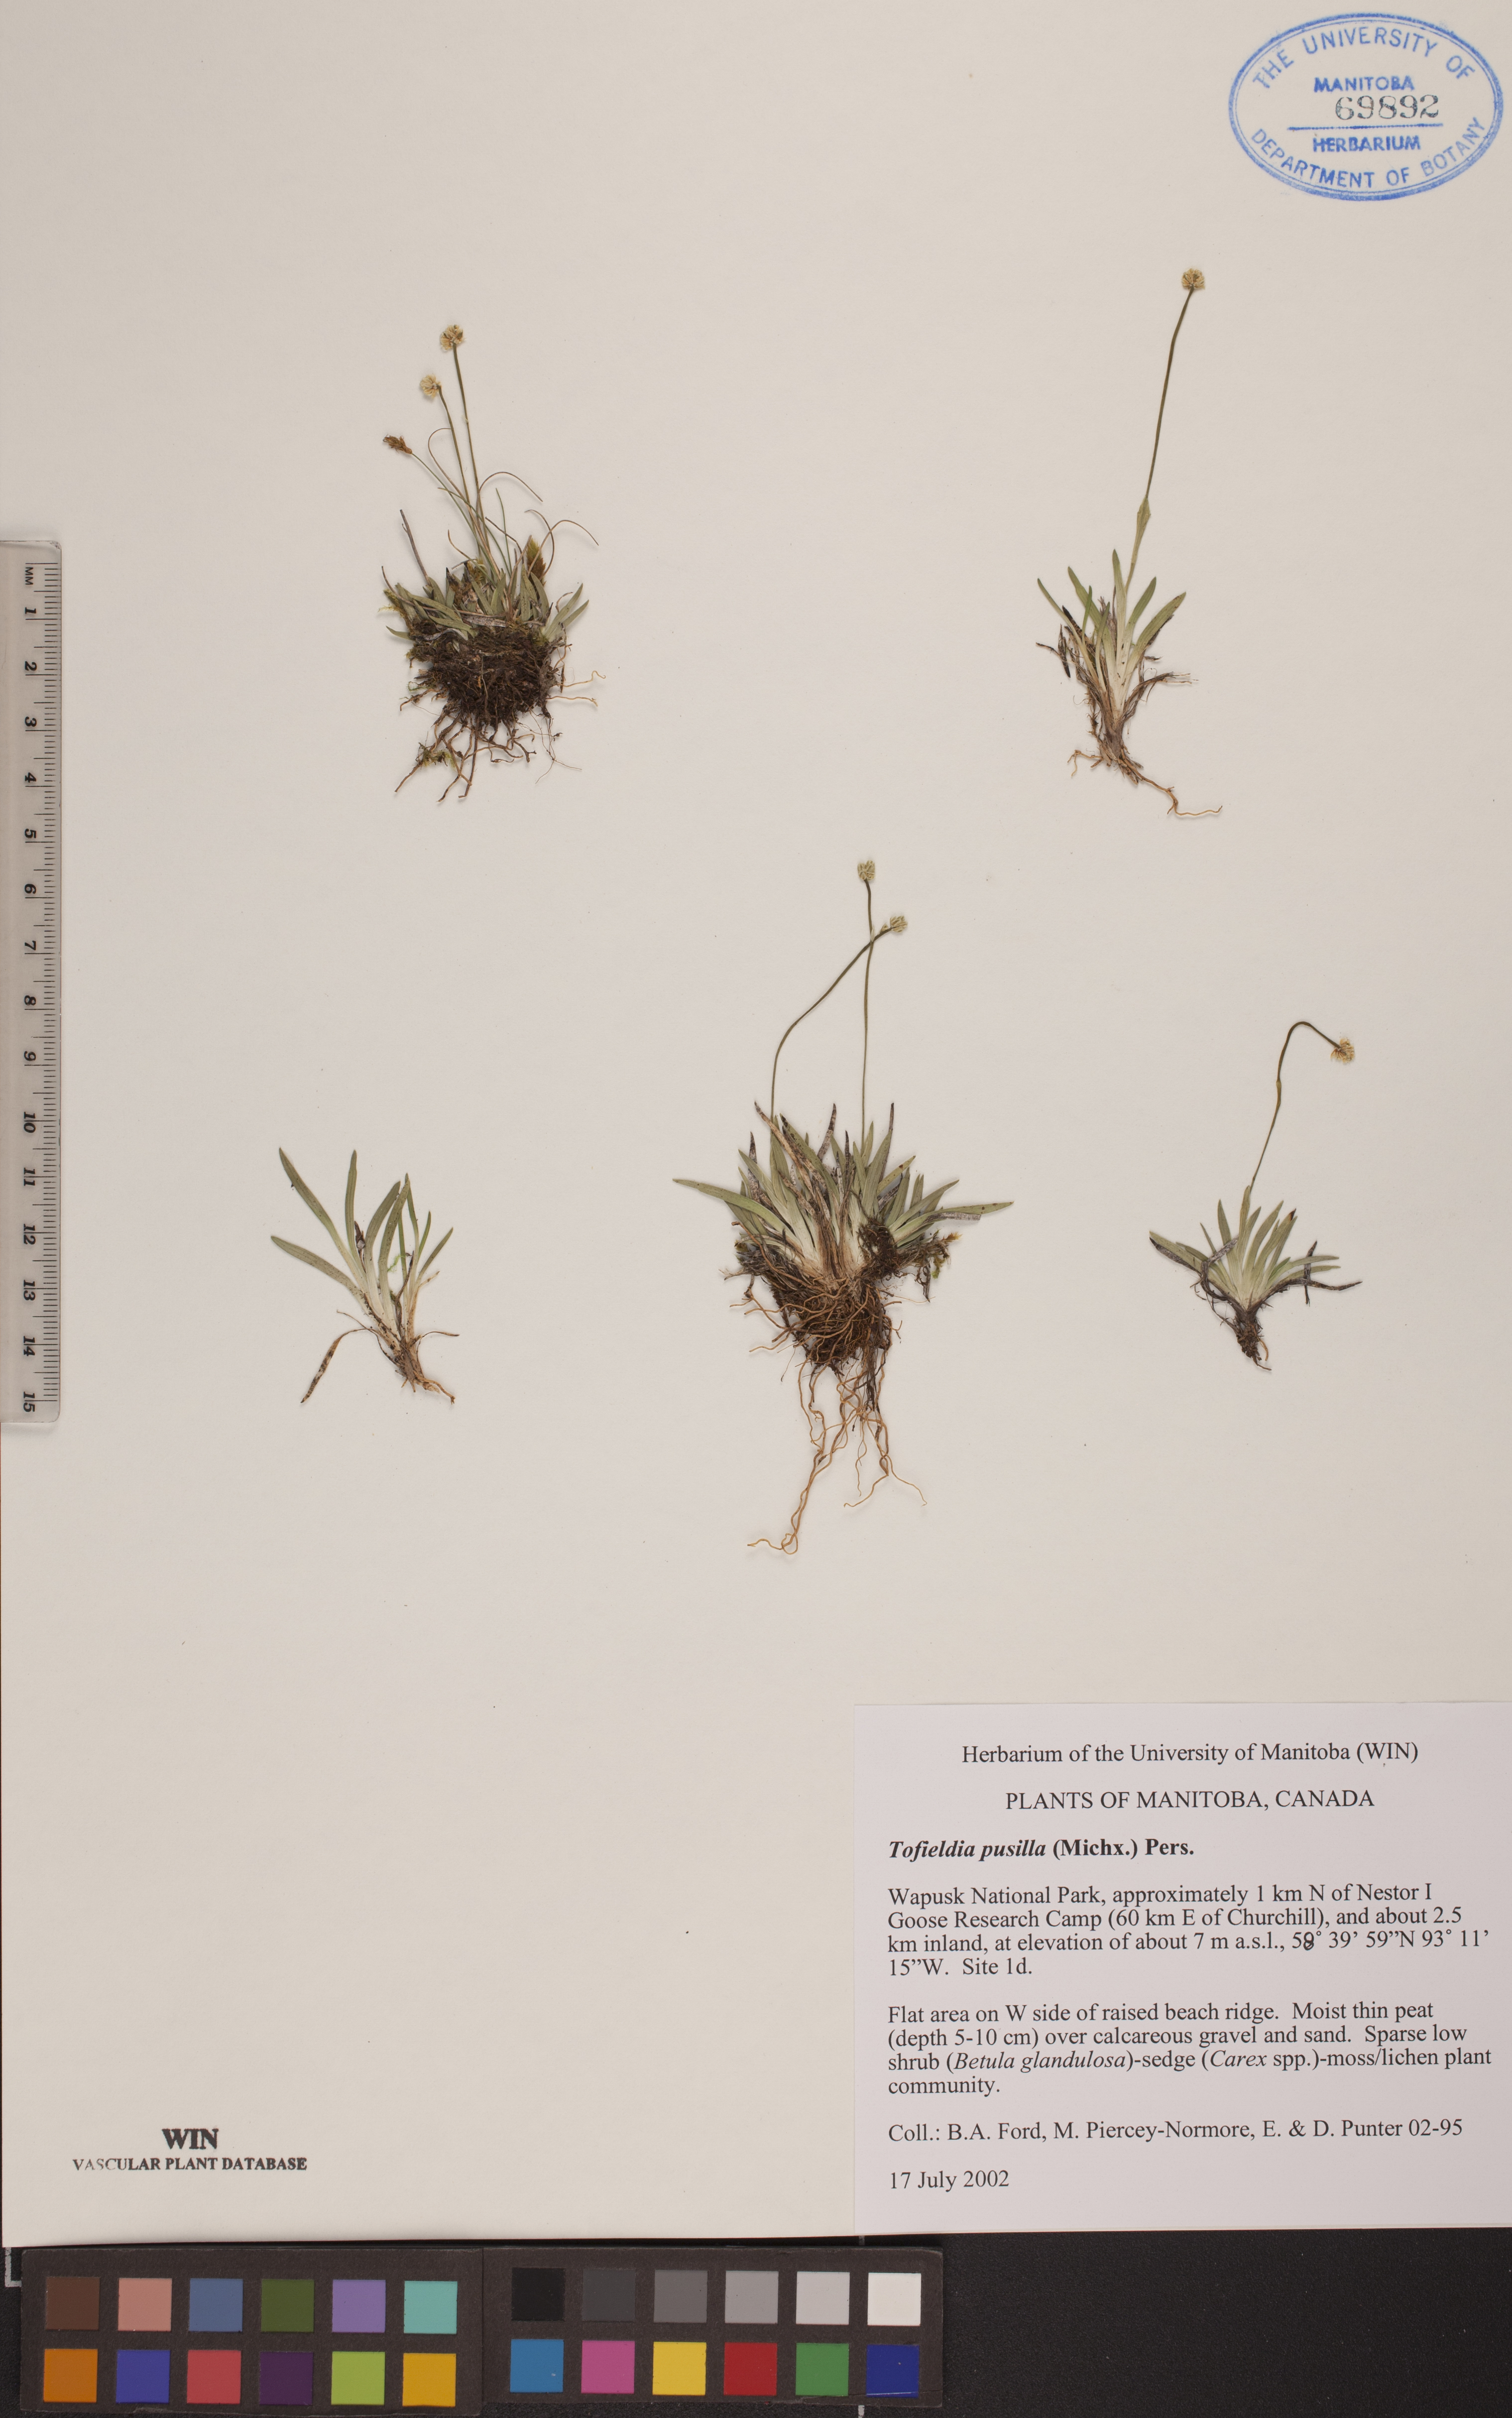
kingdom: Plantae
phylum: Tracheophyta
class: Liliopsida
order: Alismatales
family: Tofieldiaceae
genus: Tofieldia
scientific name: Tofieldia pusilla
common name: Scottish false asphodel
